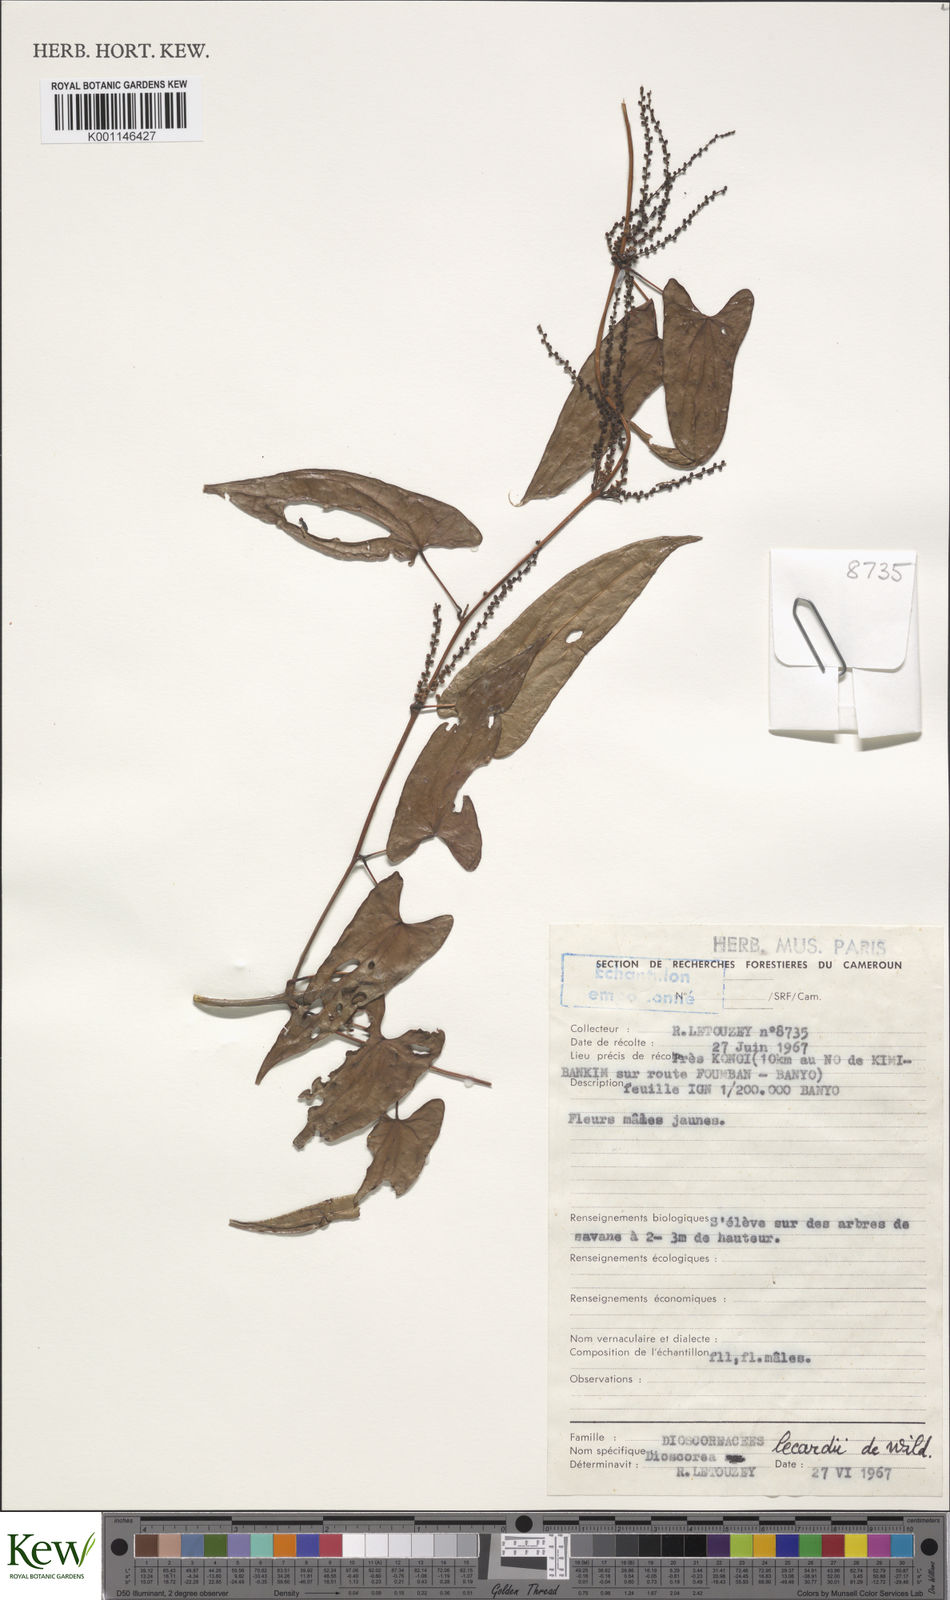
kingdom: Plantae
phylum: Tracheophyta
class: Liliopsida
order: Dioscoreales
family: Dioscoreaceae
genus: Dioscorea
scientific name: Dioscorea sagittifolia
